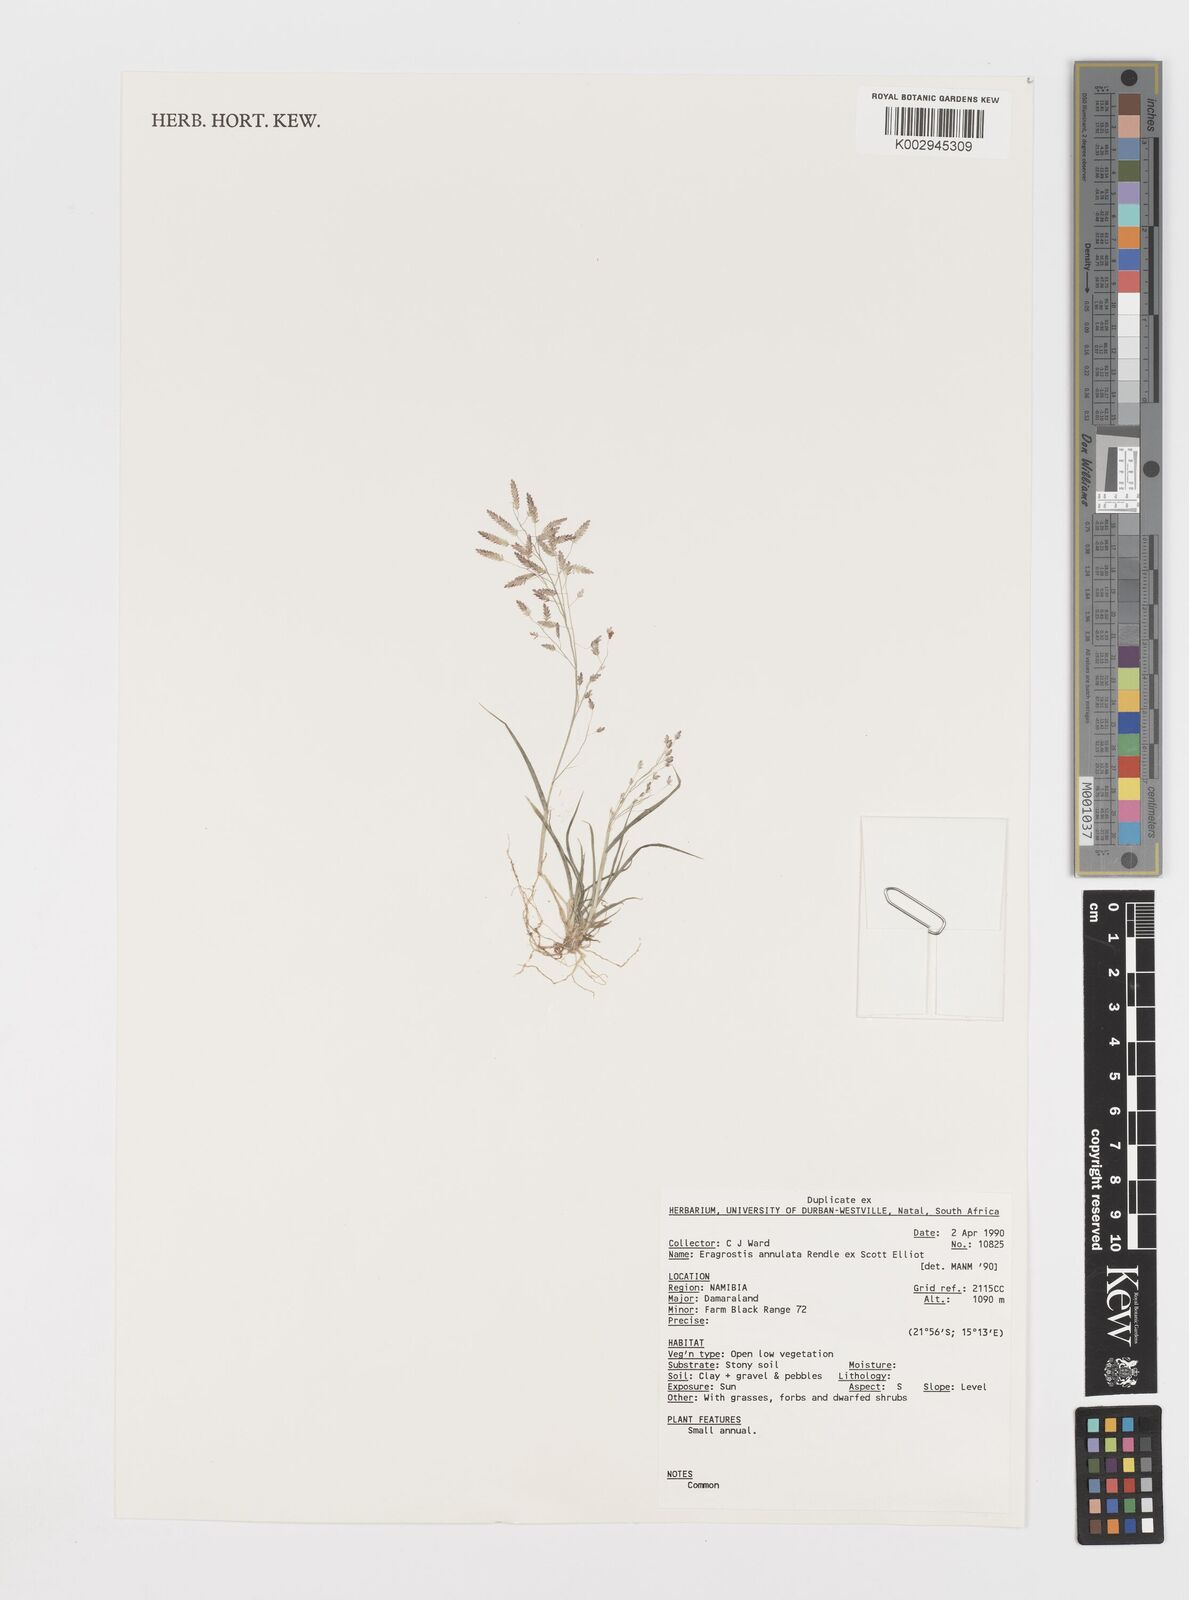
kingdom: Plantae
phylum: Tracheophyta
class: Liliopsida
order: Poales
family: Poaceae
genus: Eragrostis
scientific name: Eragrostis annulata
